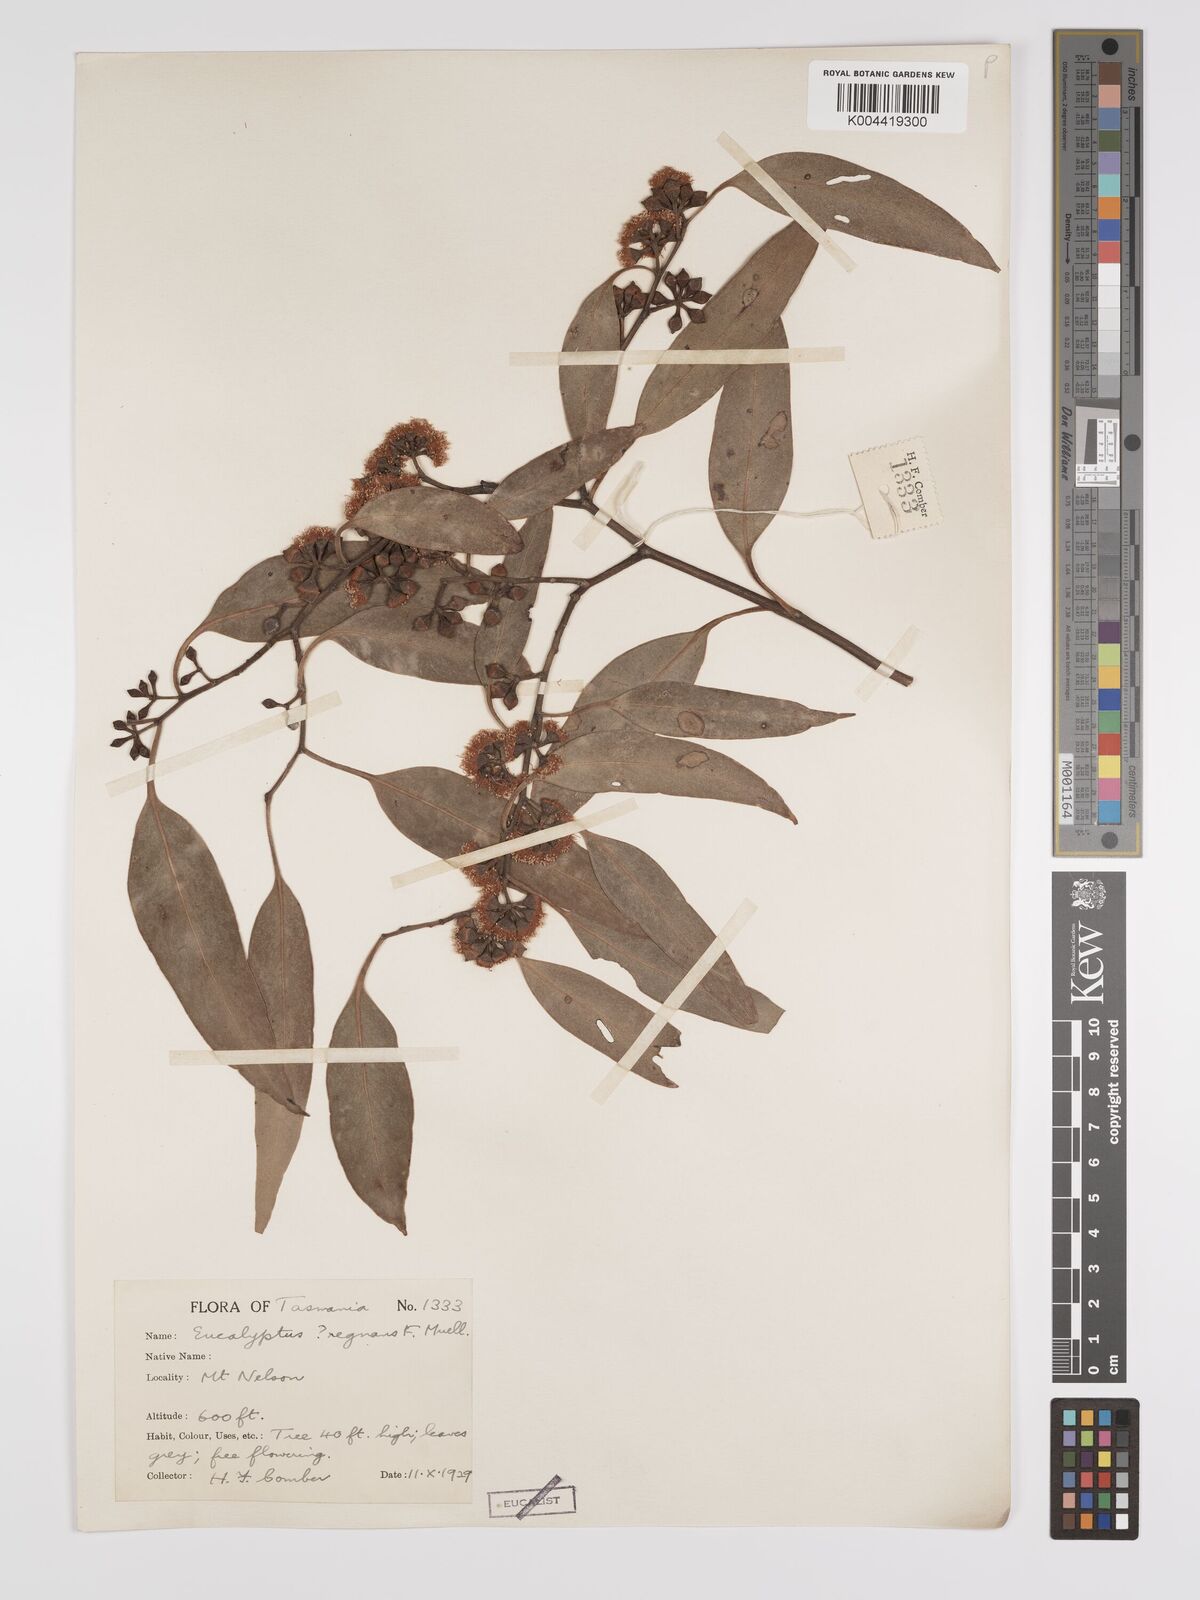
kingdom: Plantae
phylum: Tracheophyta
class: Magnoliopsida
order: Myrtales
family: Myrtaceae
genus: Eucalyptus
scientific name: Eucalyptus ovata
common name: Black-gum
